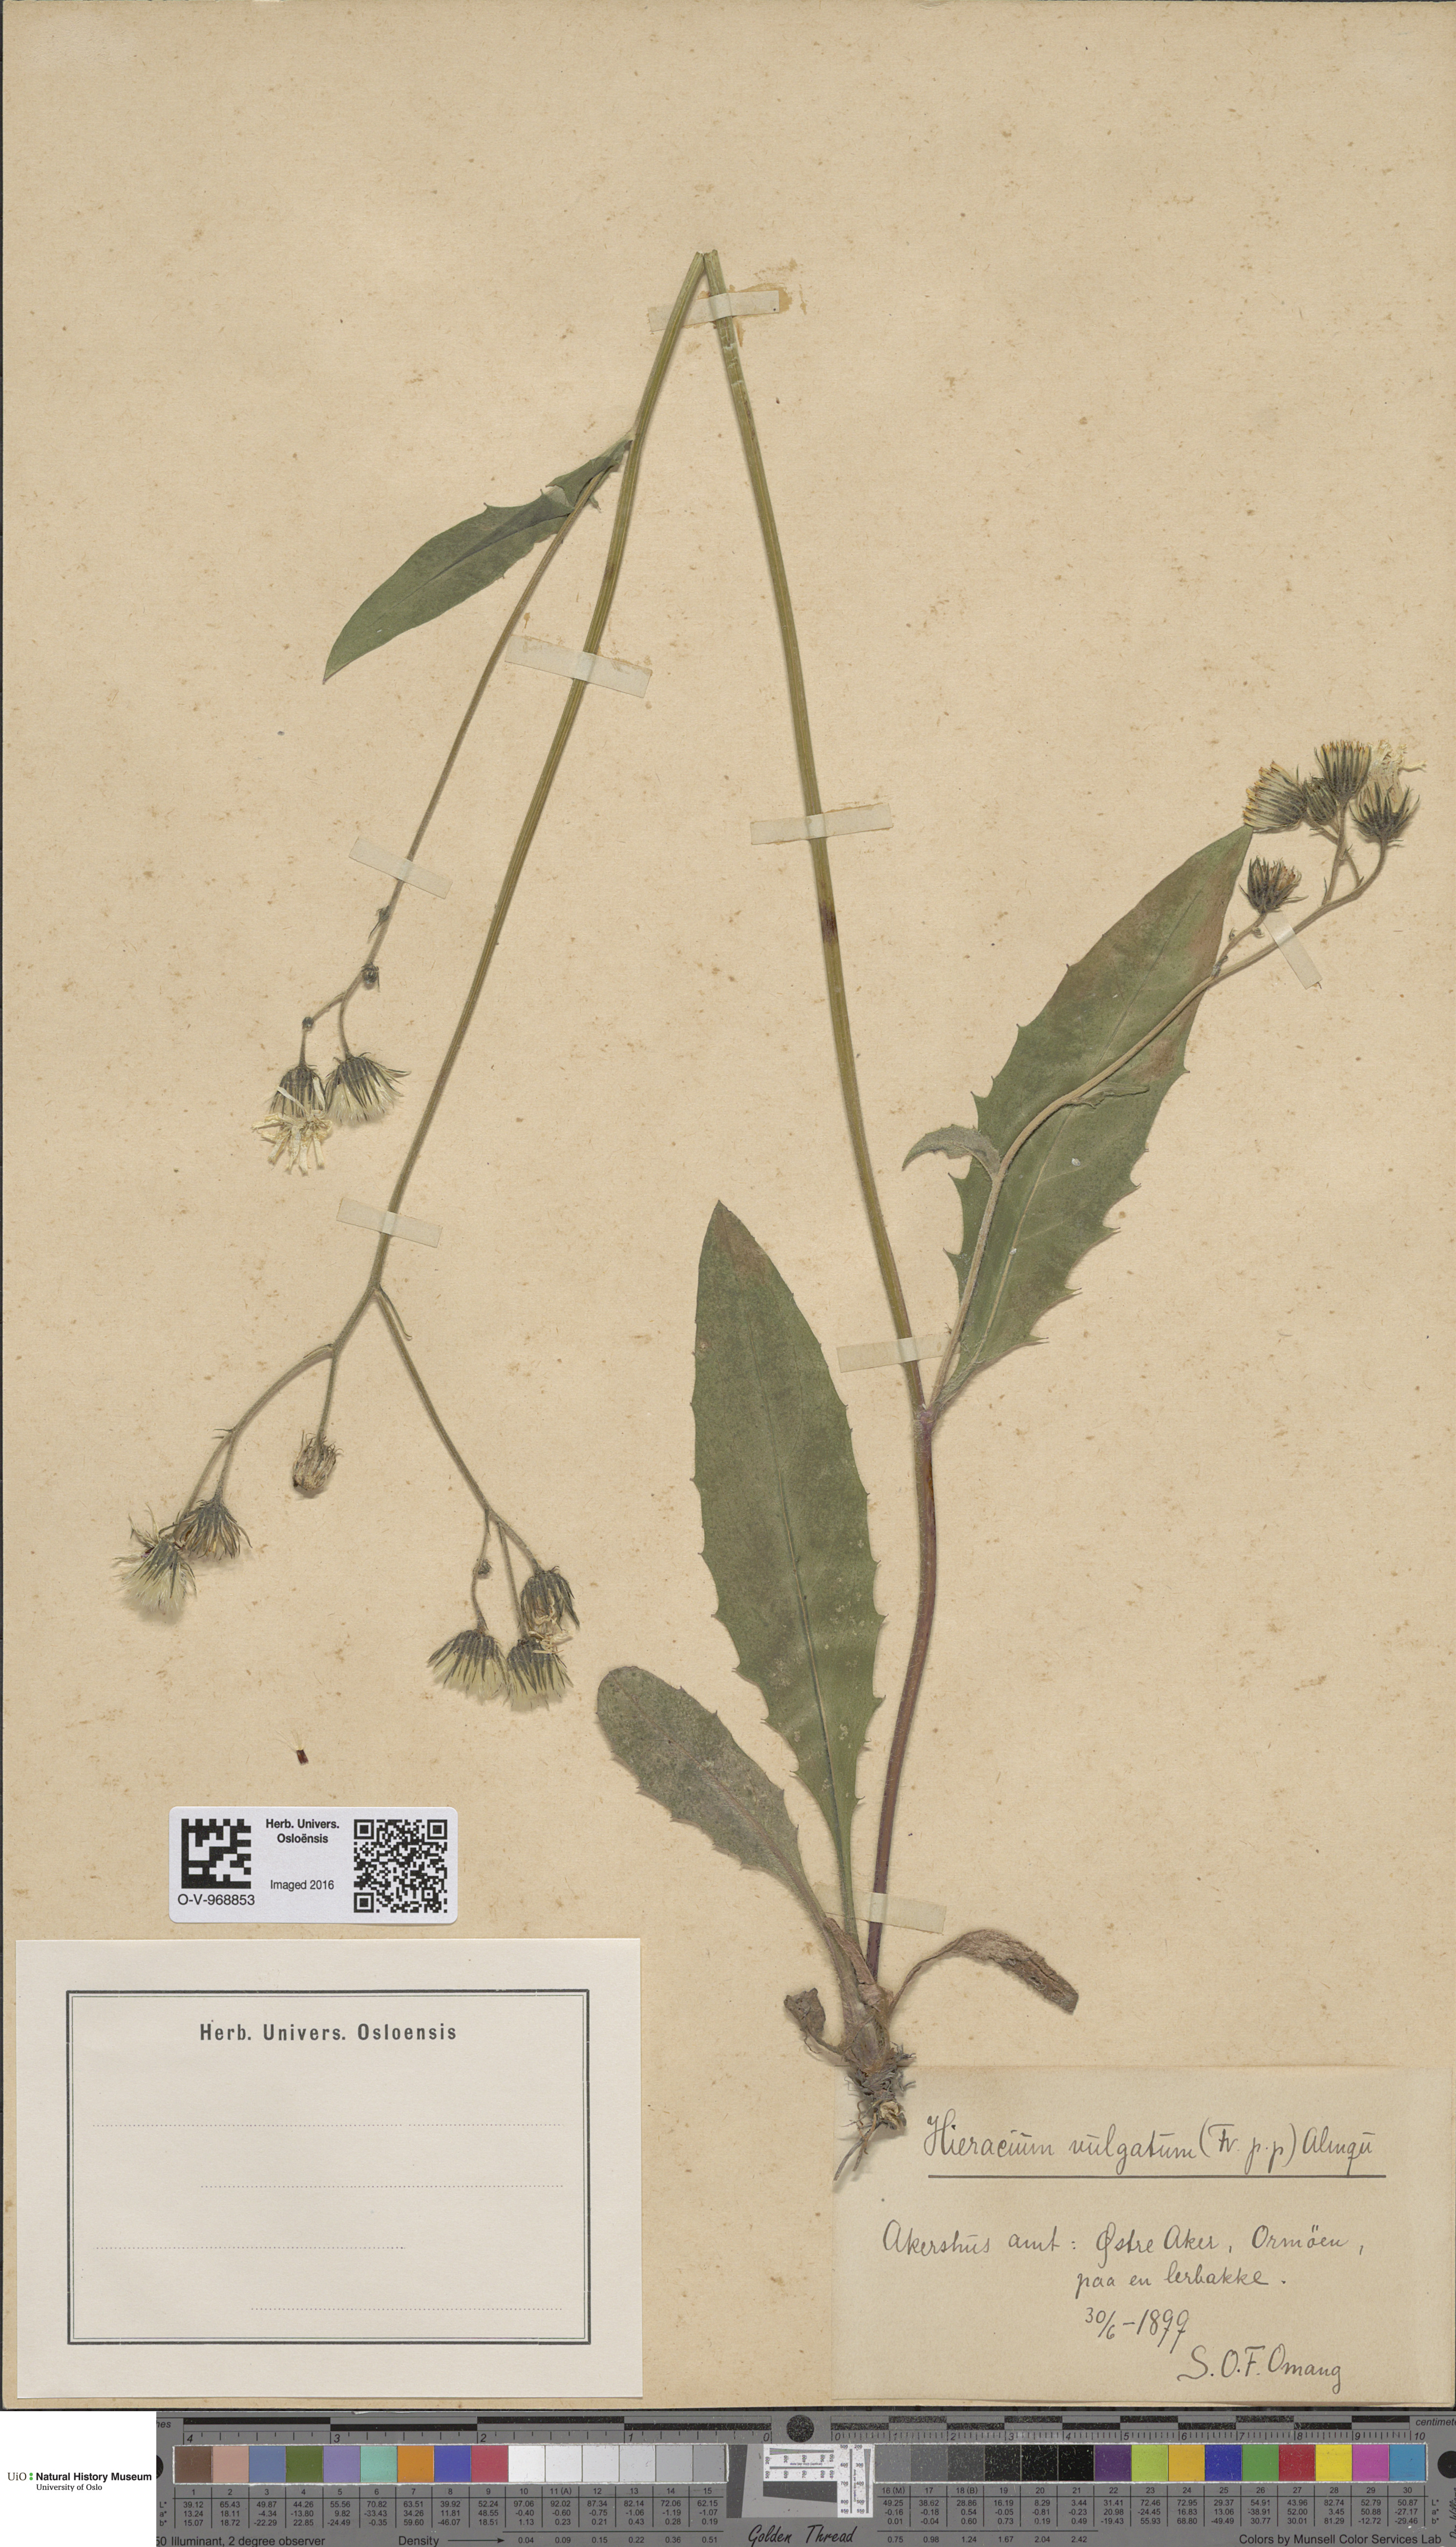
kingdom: Plantae
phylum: Tracheophyta
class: Magnoliopsida
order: Asterales
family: Asteraceae
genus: Hieracium
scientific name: Hieracium vulgatum
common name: Common hawkweed
